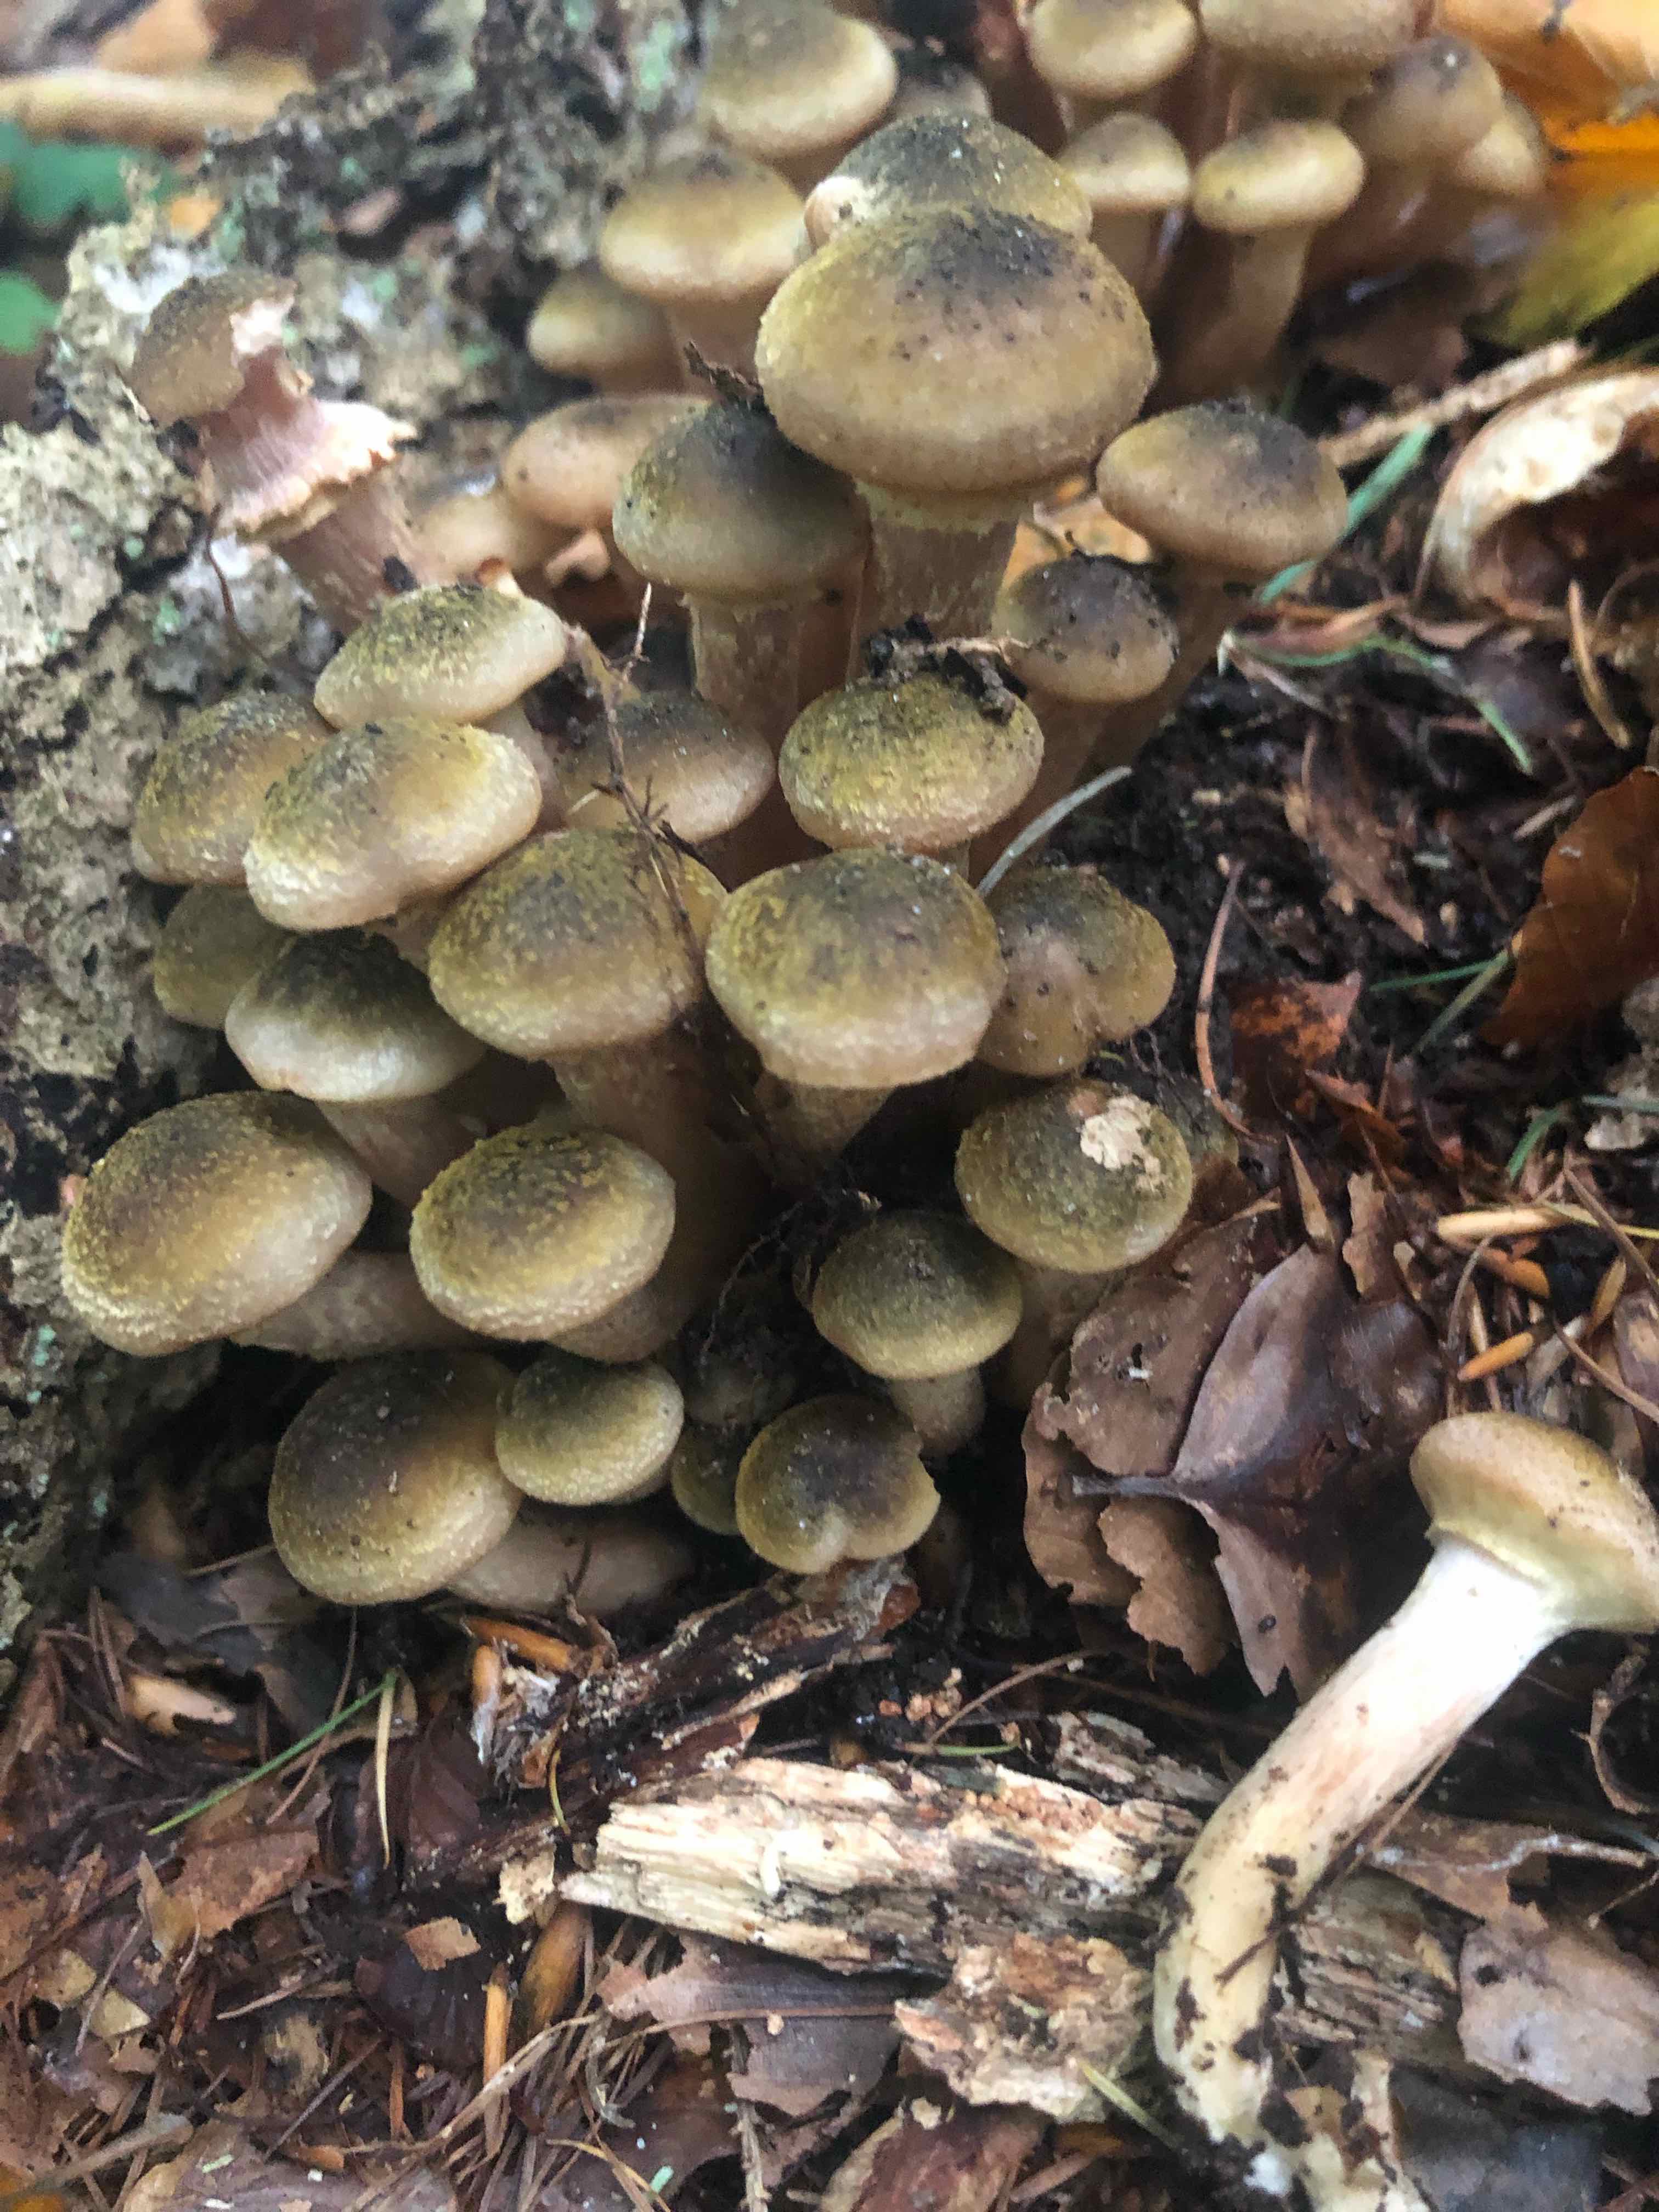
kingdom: Fungi
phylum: Basidiomycota
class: Agaricomycetes
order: Agaricales
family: Physalacriaceae
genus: Armillaria
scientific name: Armillaria mellea
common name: ægte honningsvamp
